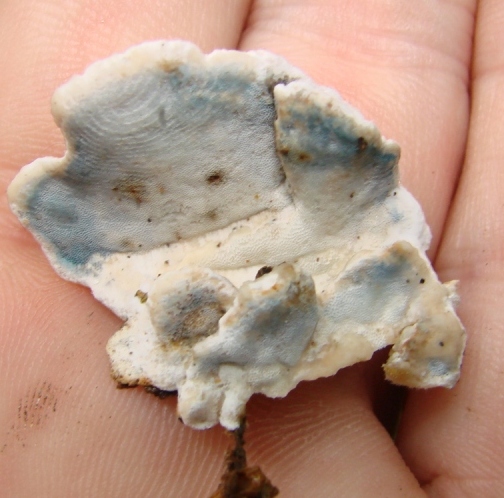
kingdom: Fungi
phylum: Basidiomycota
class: Agaricomycetes
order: Polyporales
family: Incrustoporiaceae
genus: Skeletocutis
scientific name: Skeletocutis nemoralis
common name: stor krystalporesvamp
